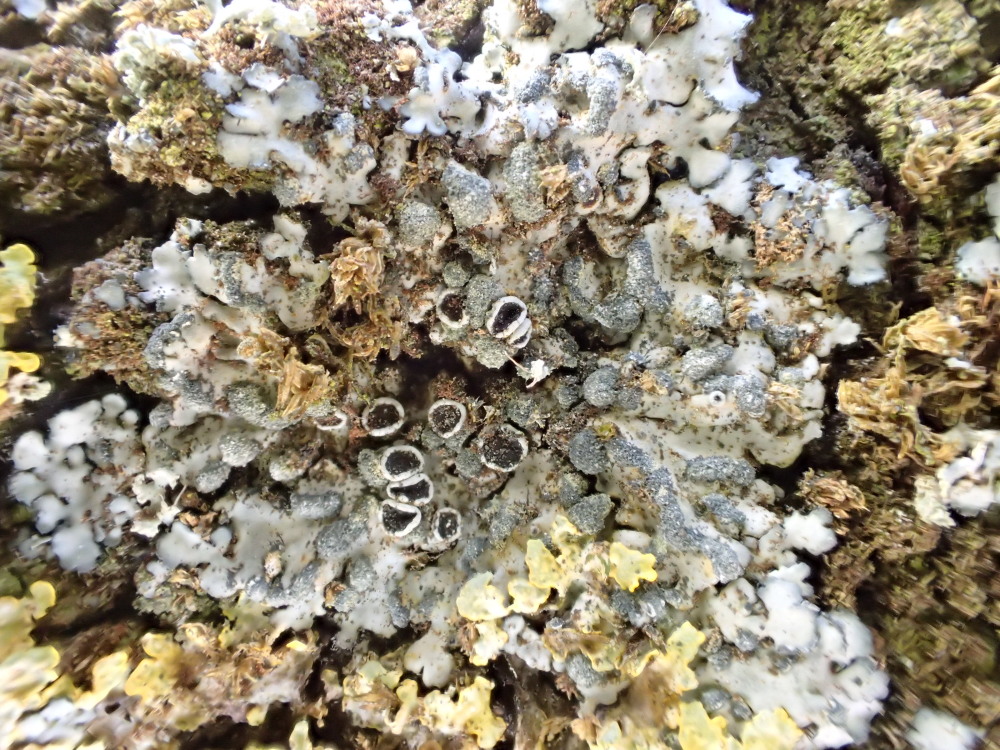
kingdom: Fungi
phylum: Ascomycota
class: Lecanoromycetes
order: Caliciales
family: Physciaceae
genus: Physcia
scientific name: Physcia caesia
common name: blågrå rosetlav
